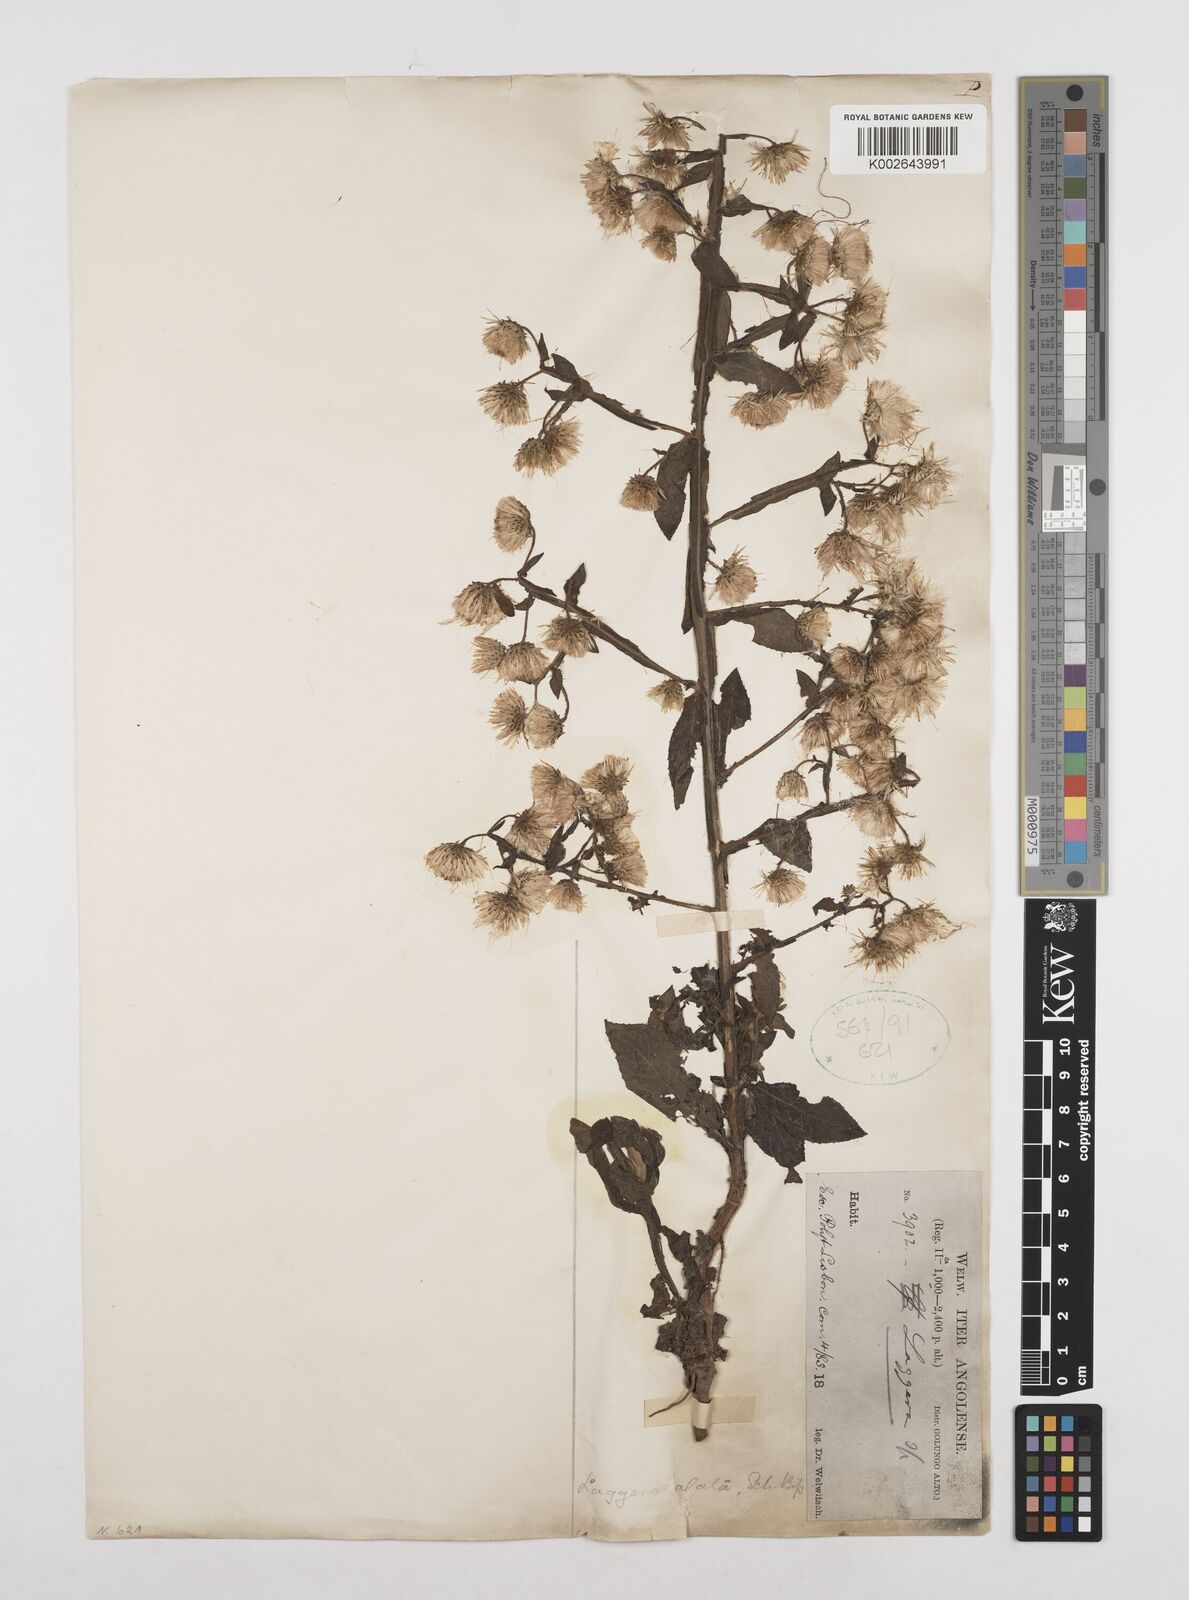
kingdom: Plantae
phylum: Tracheophyta
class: Magnoliopsida
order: Asterales
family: Asteraceae
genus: Laggera
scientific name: Laggera alata
